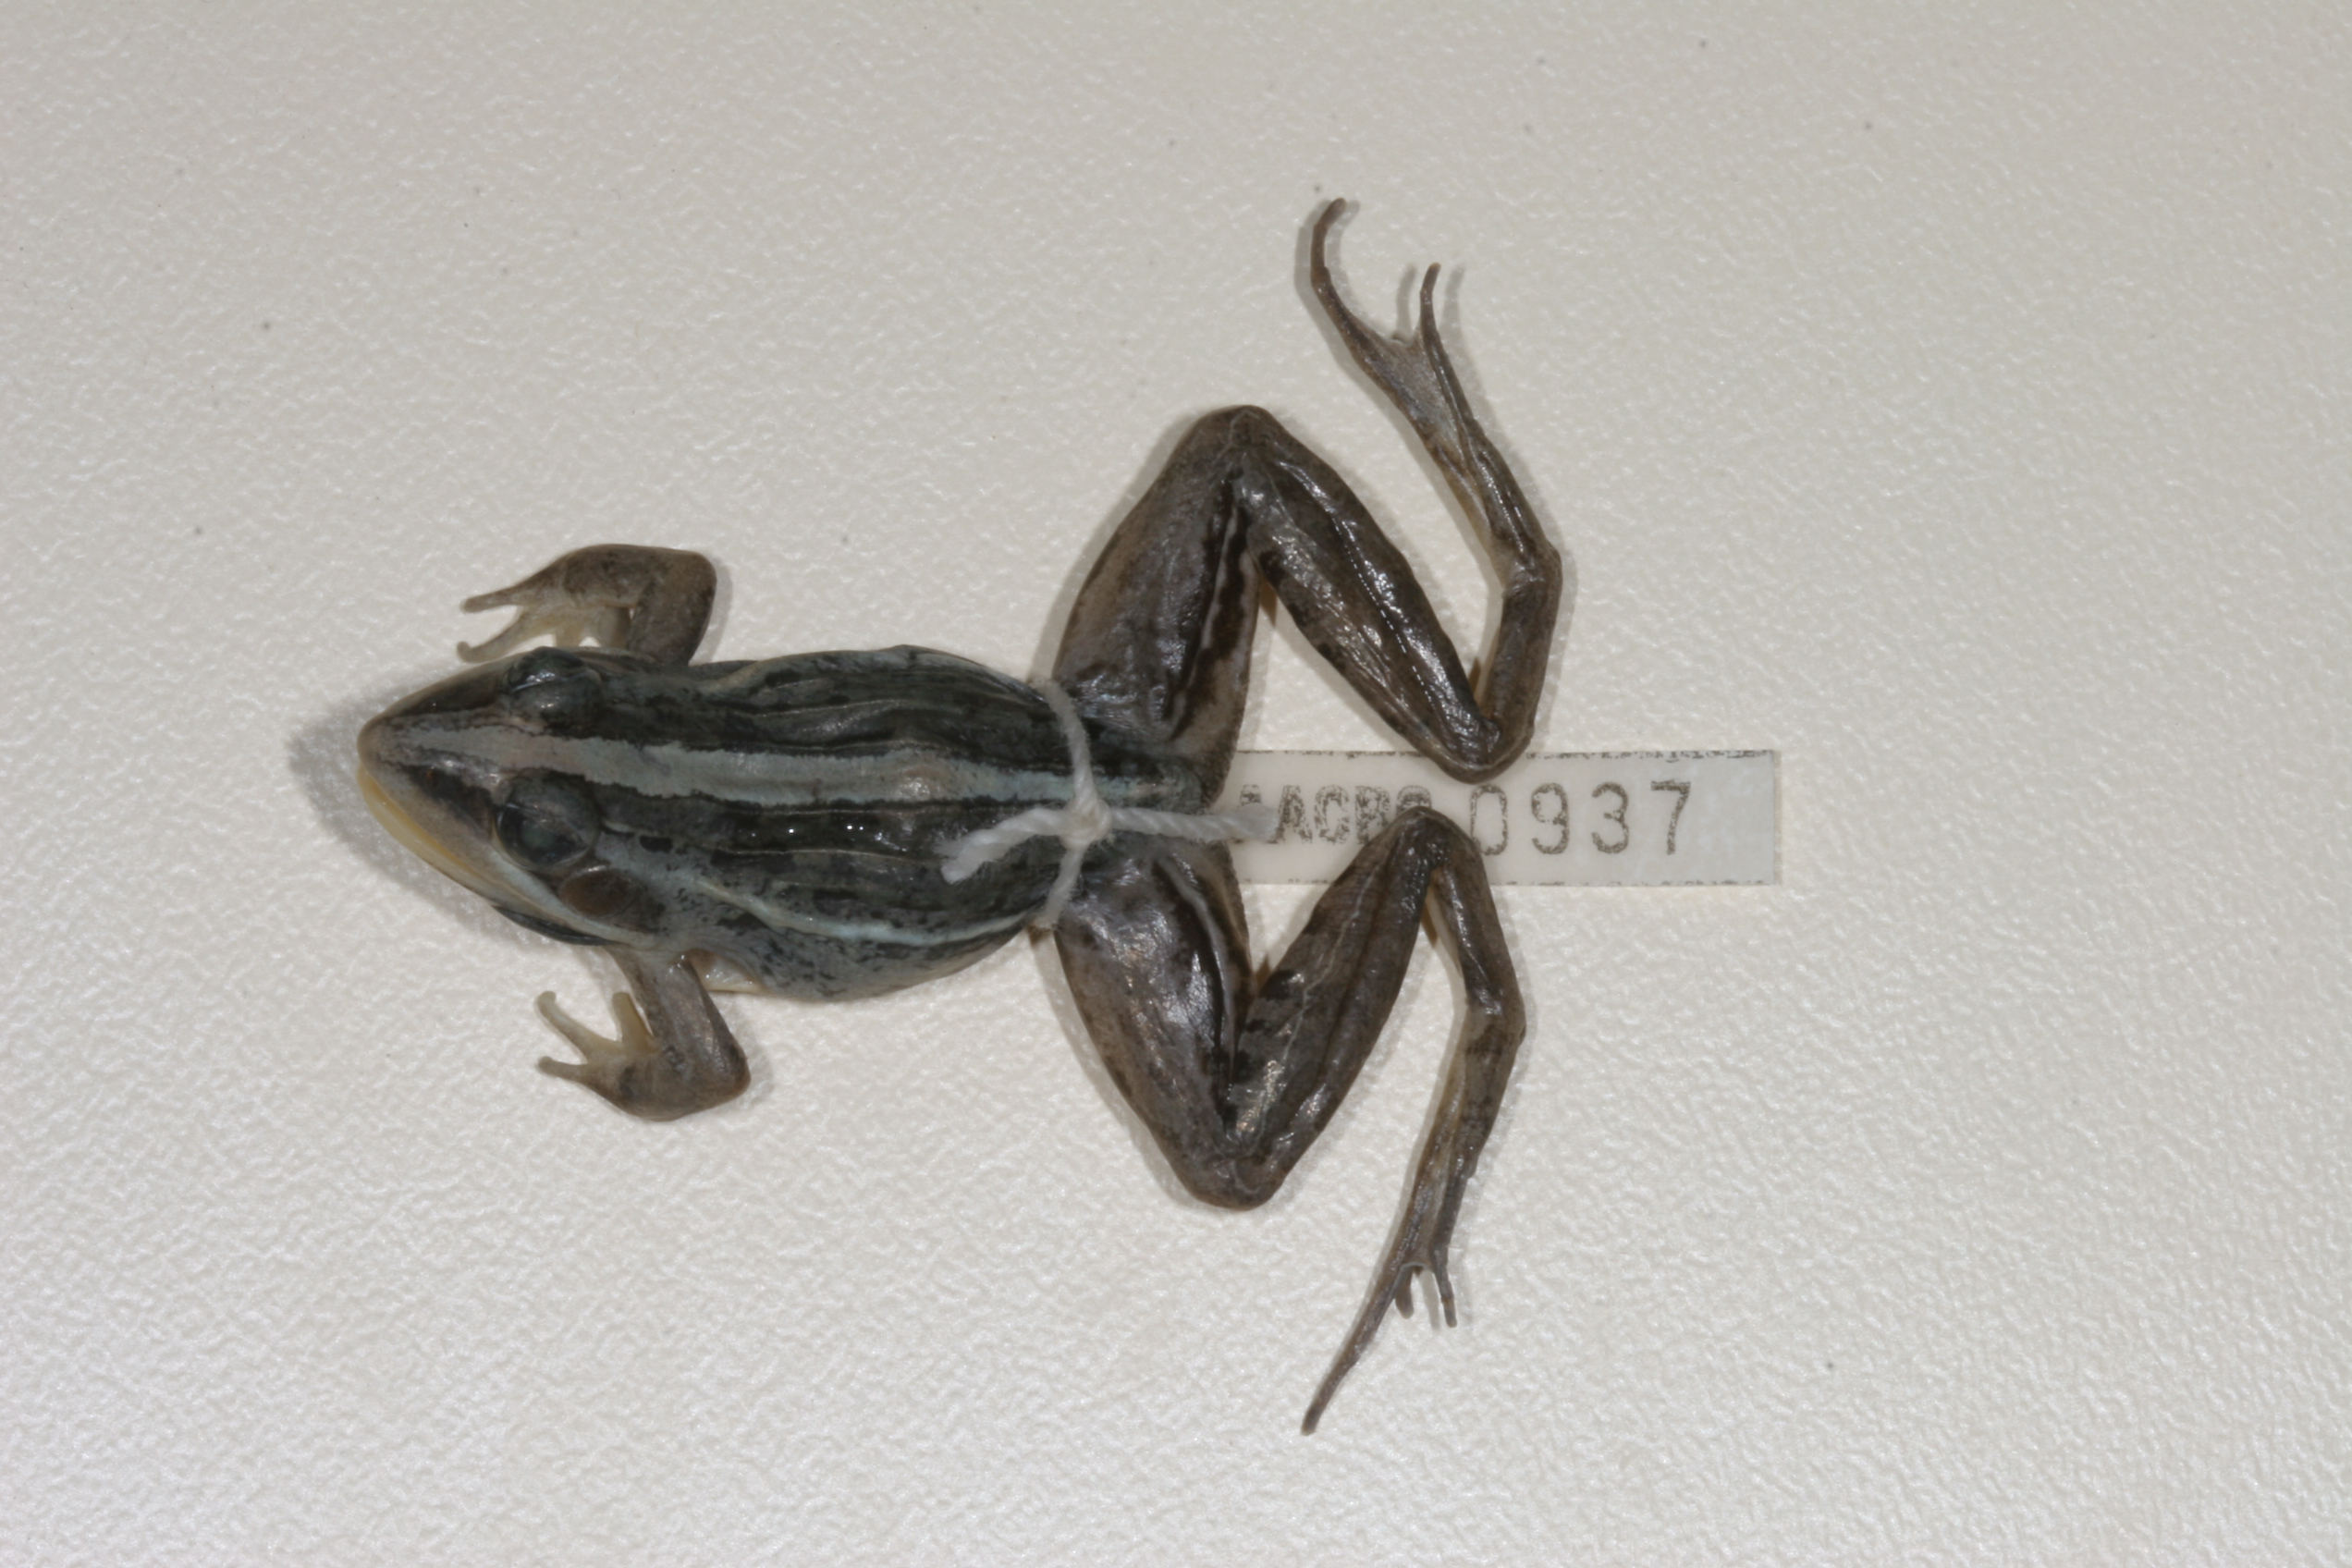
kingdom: Animalia
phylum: Chordata
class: Amphibia
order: Anura
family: Ptychadenidae
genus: Ptychadena
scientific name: Ptychadena mascareniensis
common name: Mascarene grass frog
